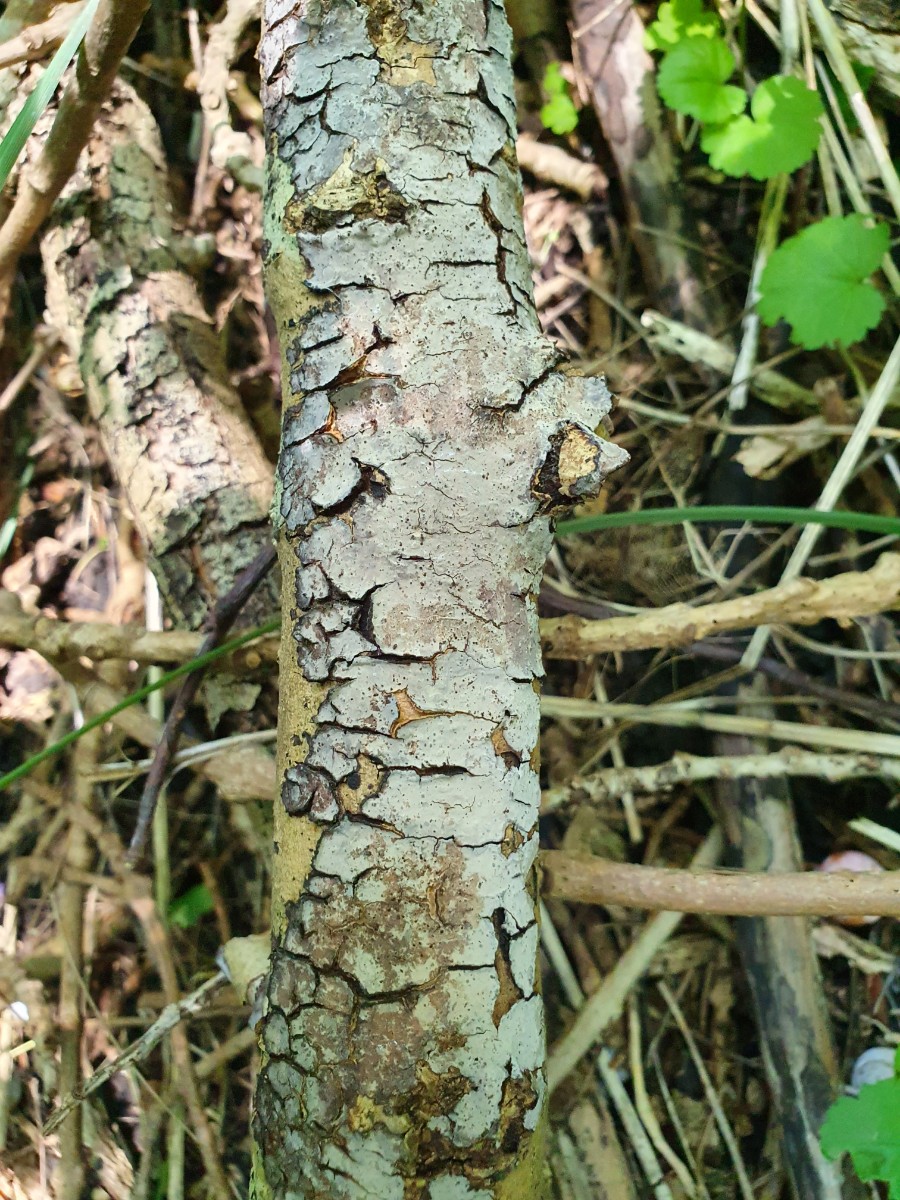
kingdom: Fungi
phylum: Basidiomycota
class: Agaricomycetes
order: Russulales
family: Peniophoraceae
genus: Peniophora
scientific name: Peniophora limitata
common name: mørkrandet voksskind
